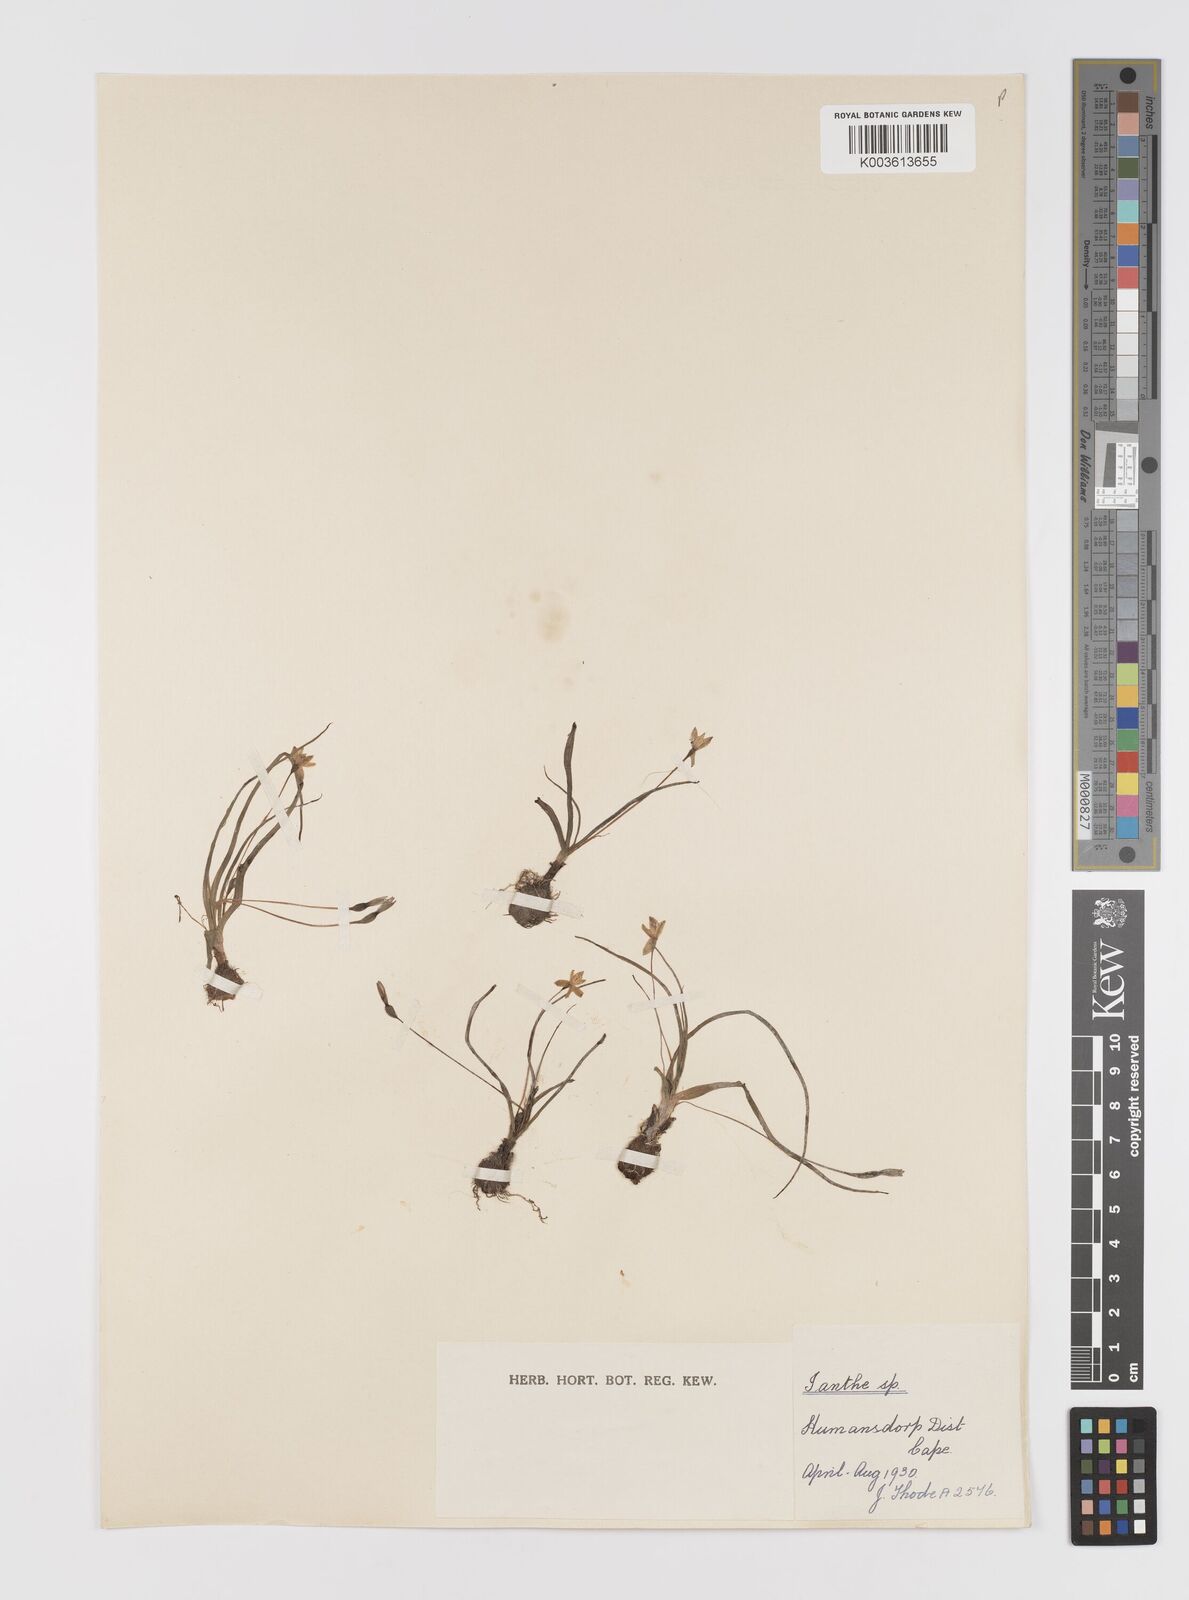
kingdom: Plantae
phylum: Tracheophyta
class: Liliopsida
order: Asparagales
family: Hypoxidaceae
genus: Pauridia
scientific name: Pauridia
